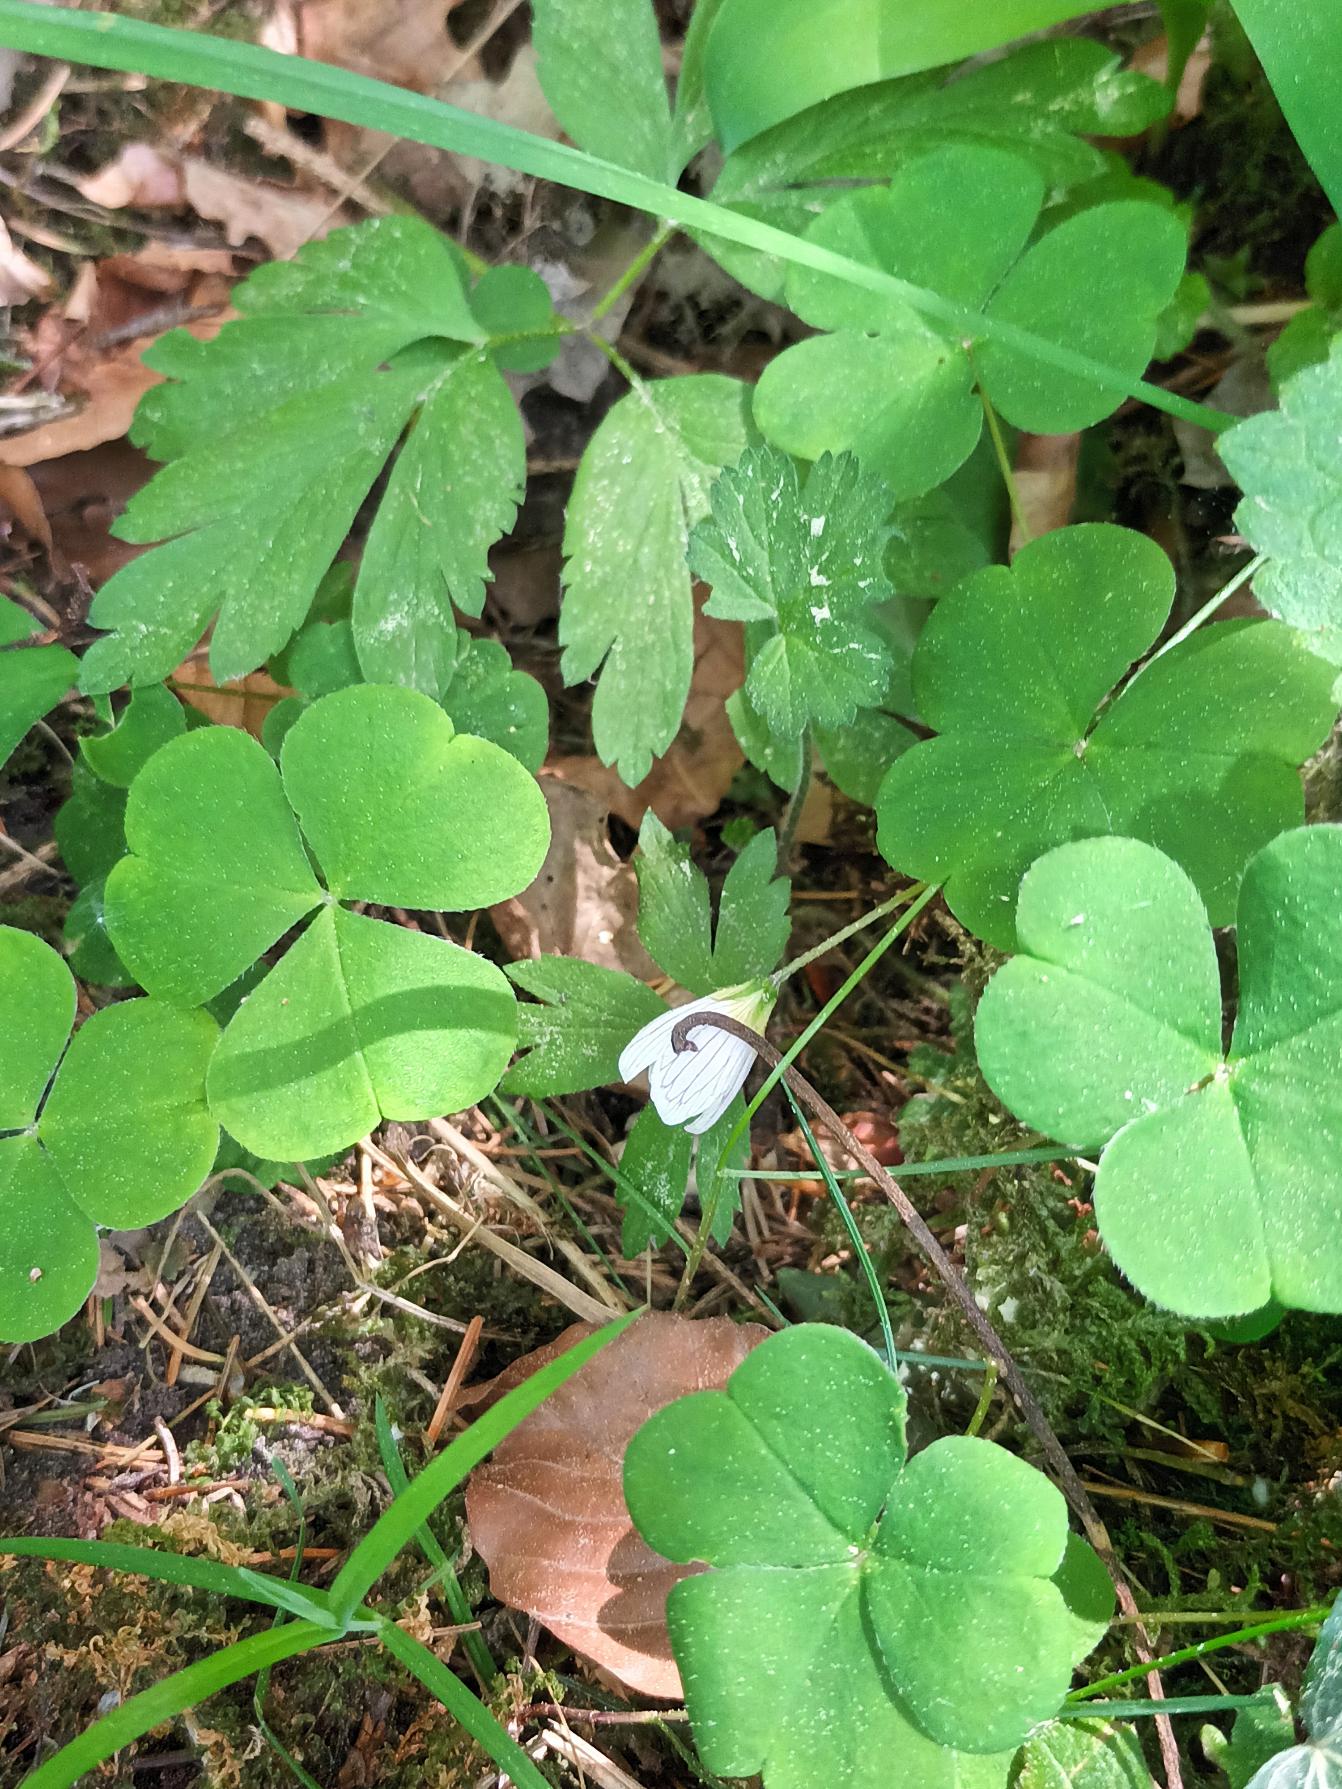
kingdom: Plantae
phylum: Tracheophyta
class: Magnoliopsida
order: Oxalidales
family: Oxalidaceae
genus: Oxalis
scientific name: Oxalis acetosella
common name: Skovsyre
